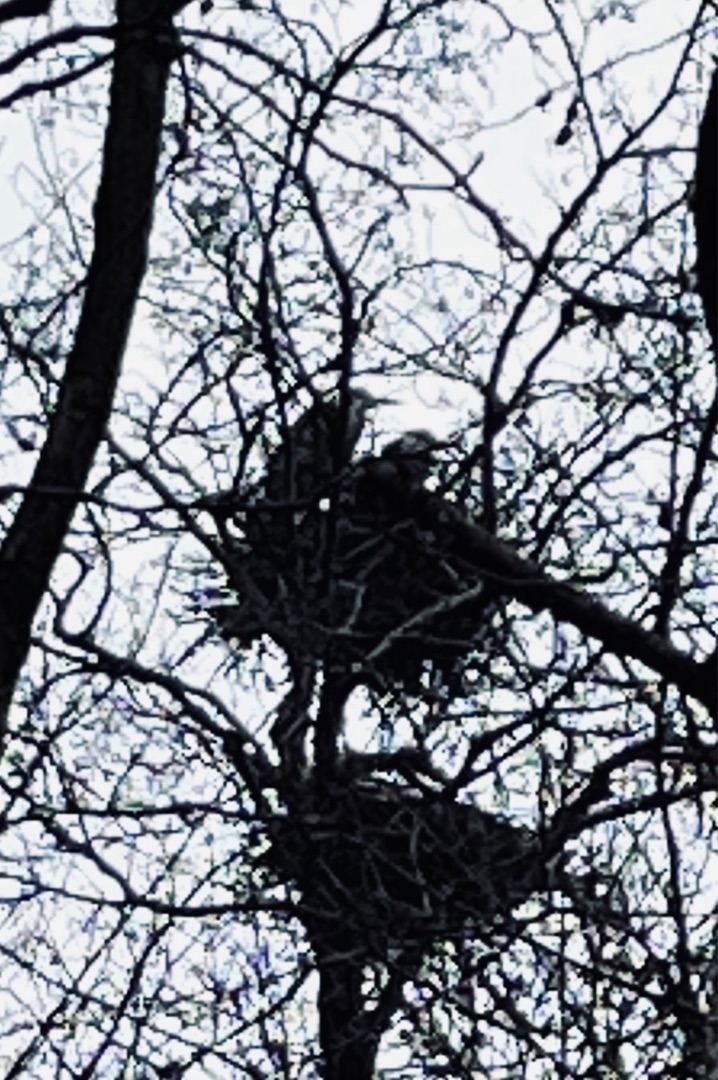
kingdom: Animalia
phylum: Chordata
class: Aves
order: Pelecaniformes
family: Ardeidae
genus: Ardea
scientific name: Ardea cinerea
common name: Fiskehejre
